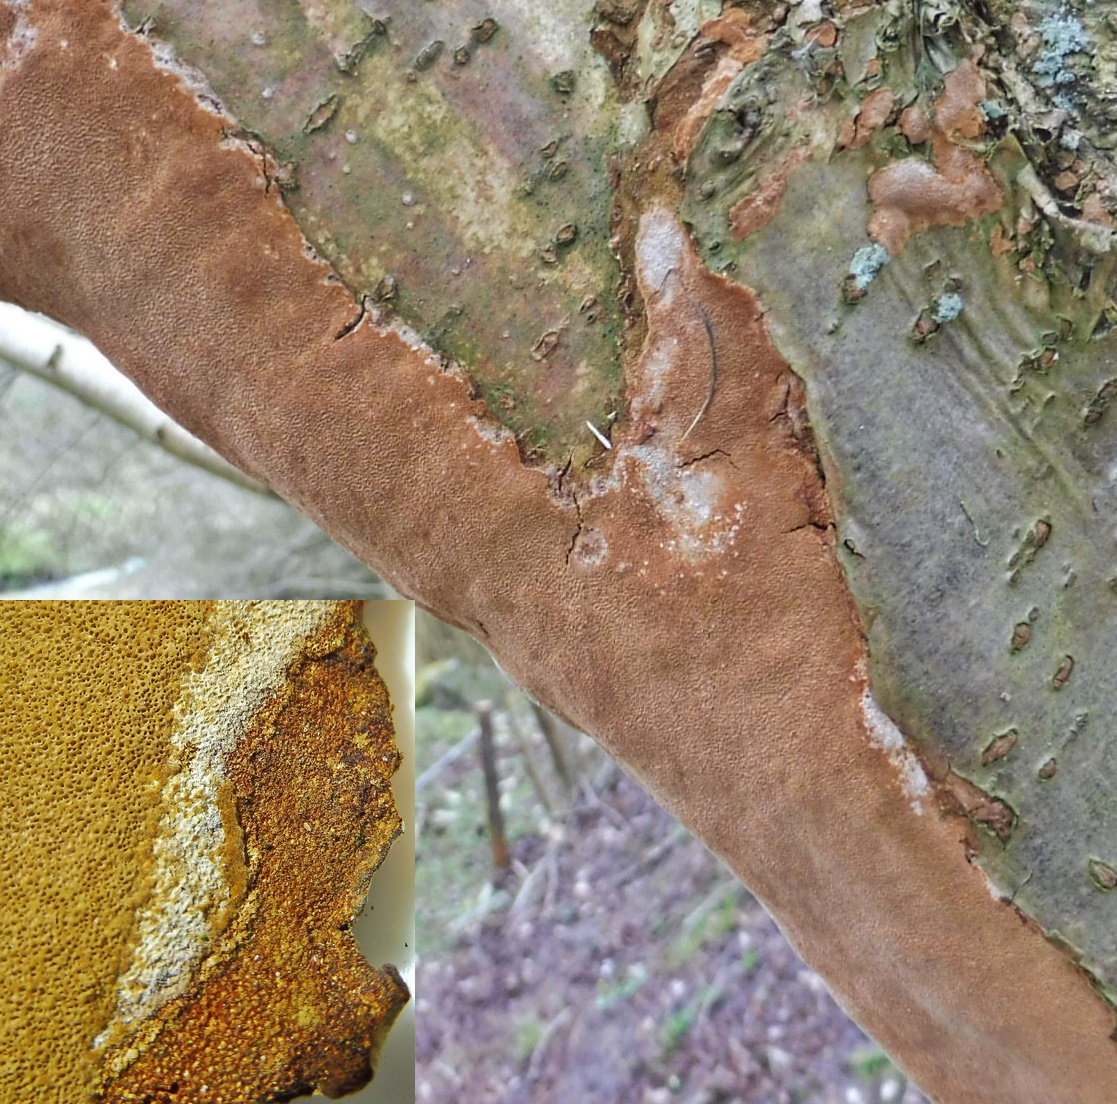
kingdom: Fungi
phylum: Basidiomycota
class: Agaricomycetes
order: Hymenochaetales
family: Hymenochaetaceae
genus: Fuscoporia
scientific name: Fuscoporia ferrea
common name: skorpe-ildporesvamp
